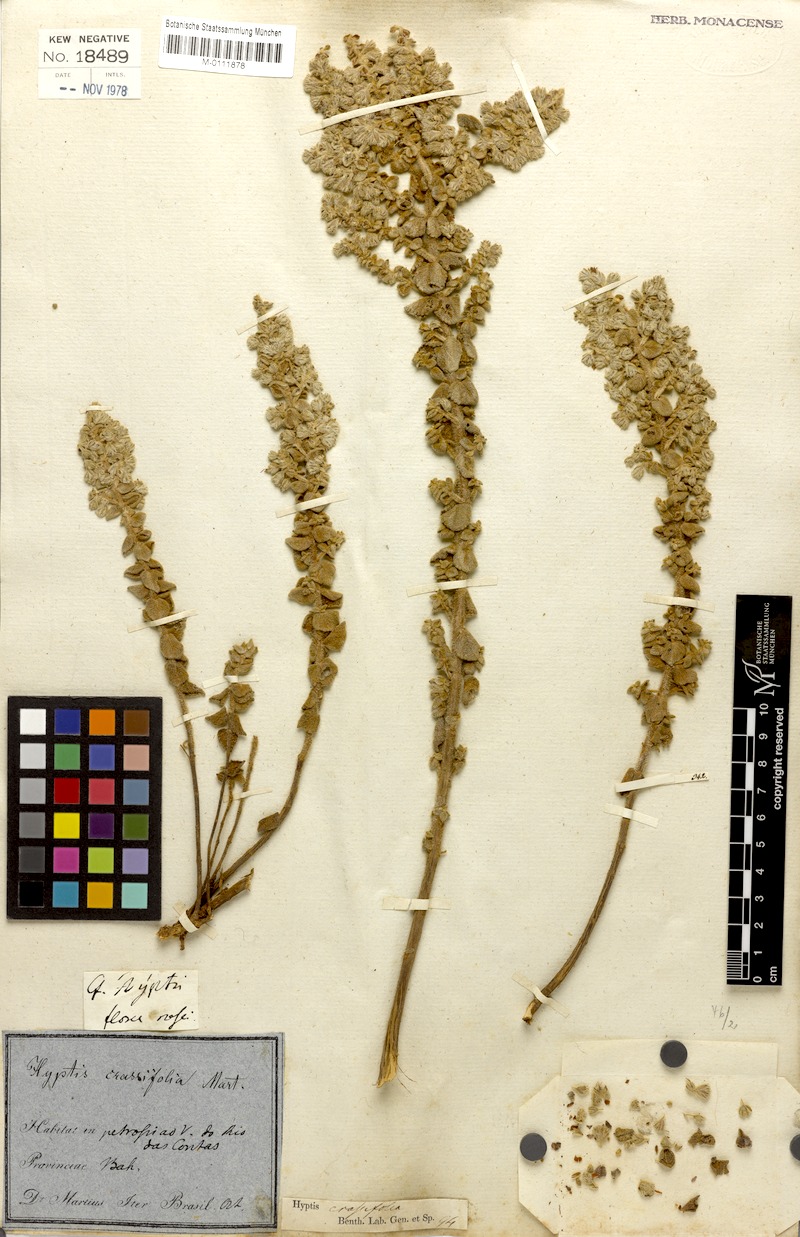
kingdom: Plantae
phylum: Tracheophyta
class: Magnoliopsida
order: Lamiales
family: Lamiaceae
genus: Oocephalus
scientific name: Oocephalus crassifolius
